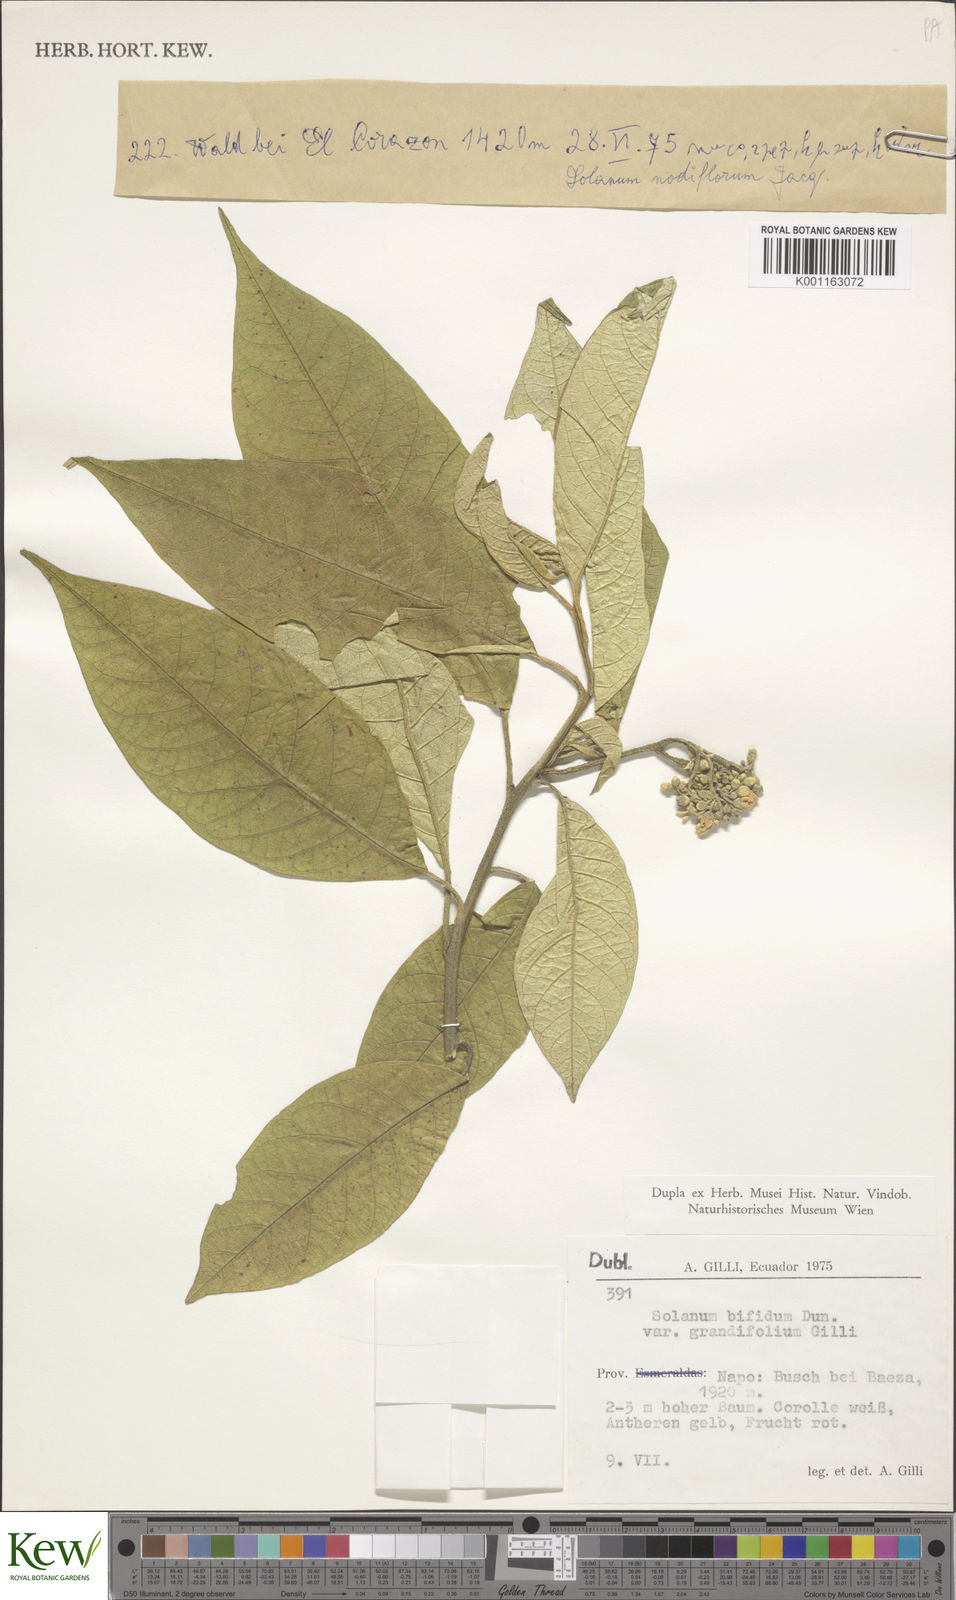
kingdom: Plantae
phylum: Tracheophyta
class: Magnoliopsida
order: Solanales
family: Solanaceae
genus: Solanum
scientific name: Solanum argenteum
